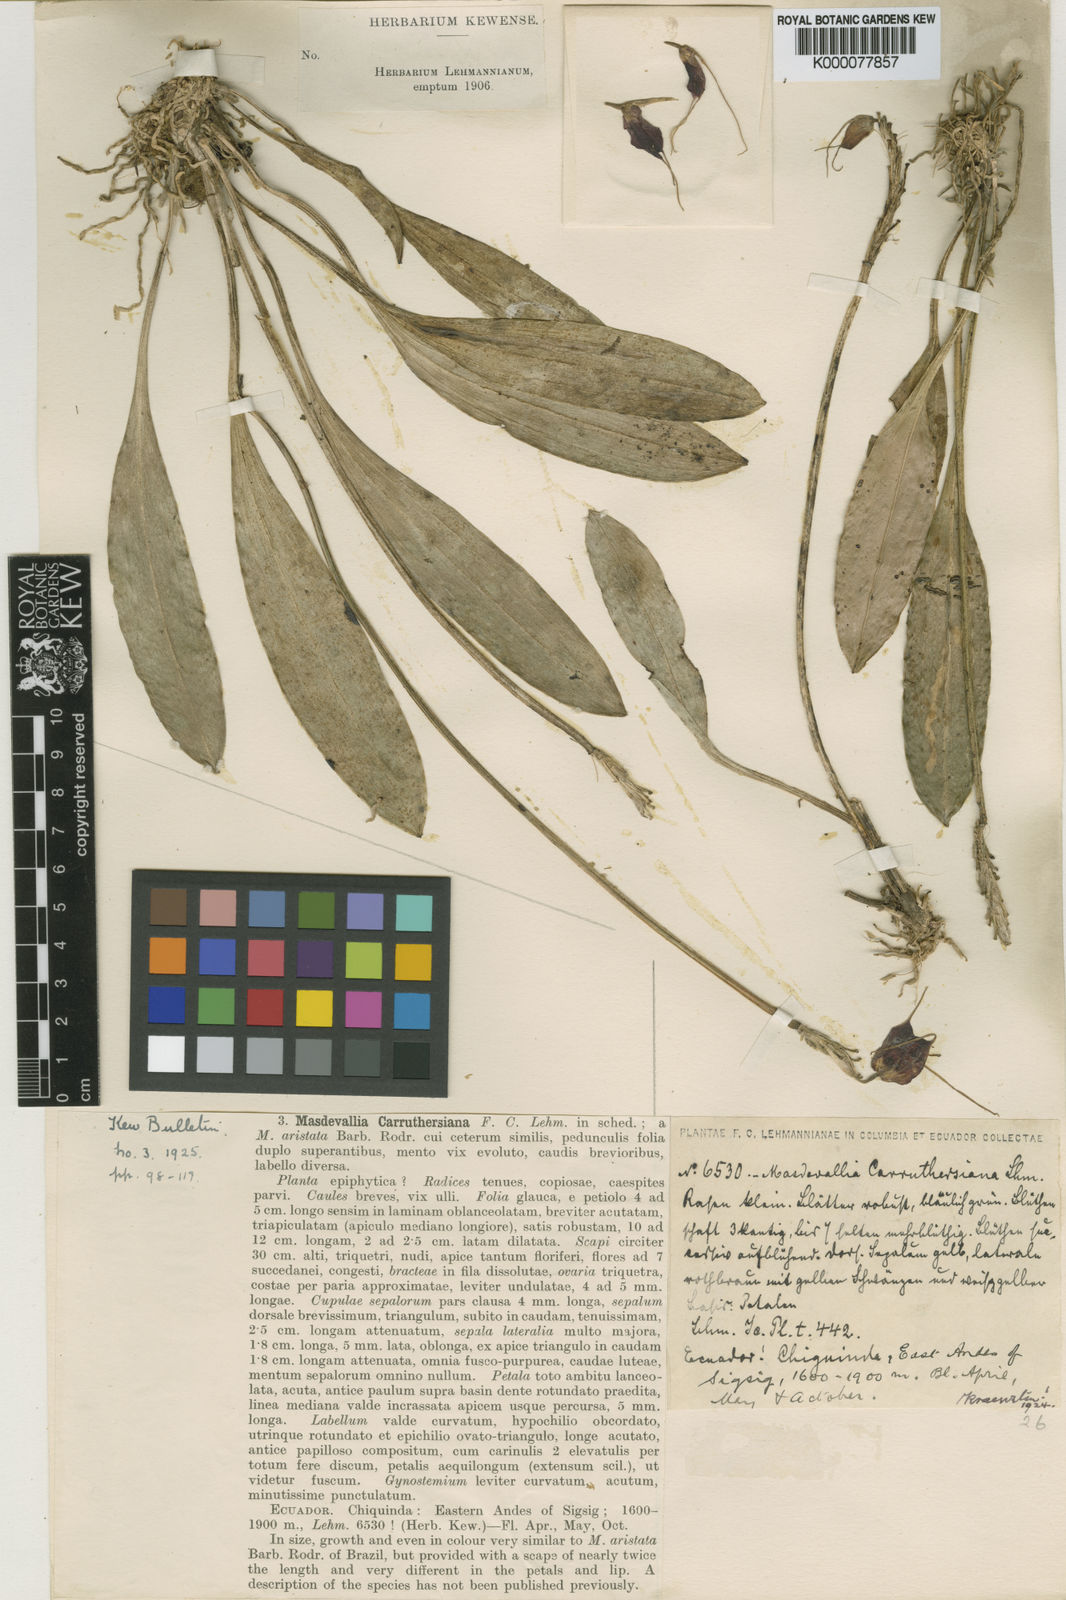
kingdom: Plantae
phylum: Tracheophyta
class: Liliopsida
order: Asparagales
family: Orchidaceae
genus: Masdevallia
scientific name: Masdevallia carruthersiana
